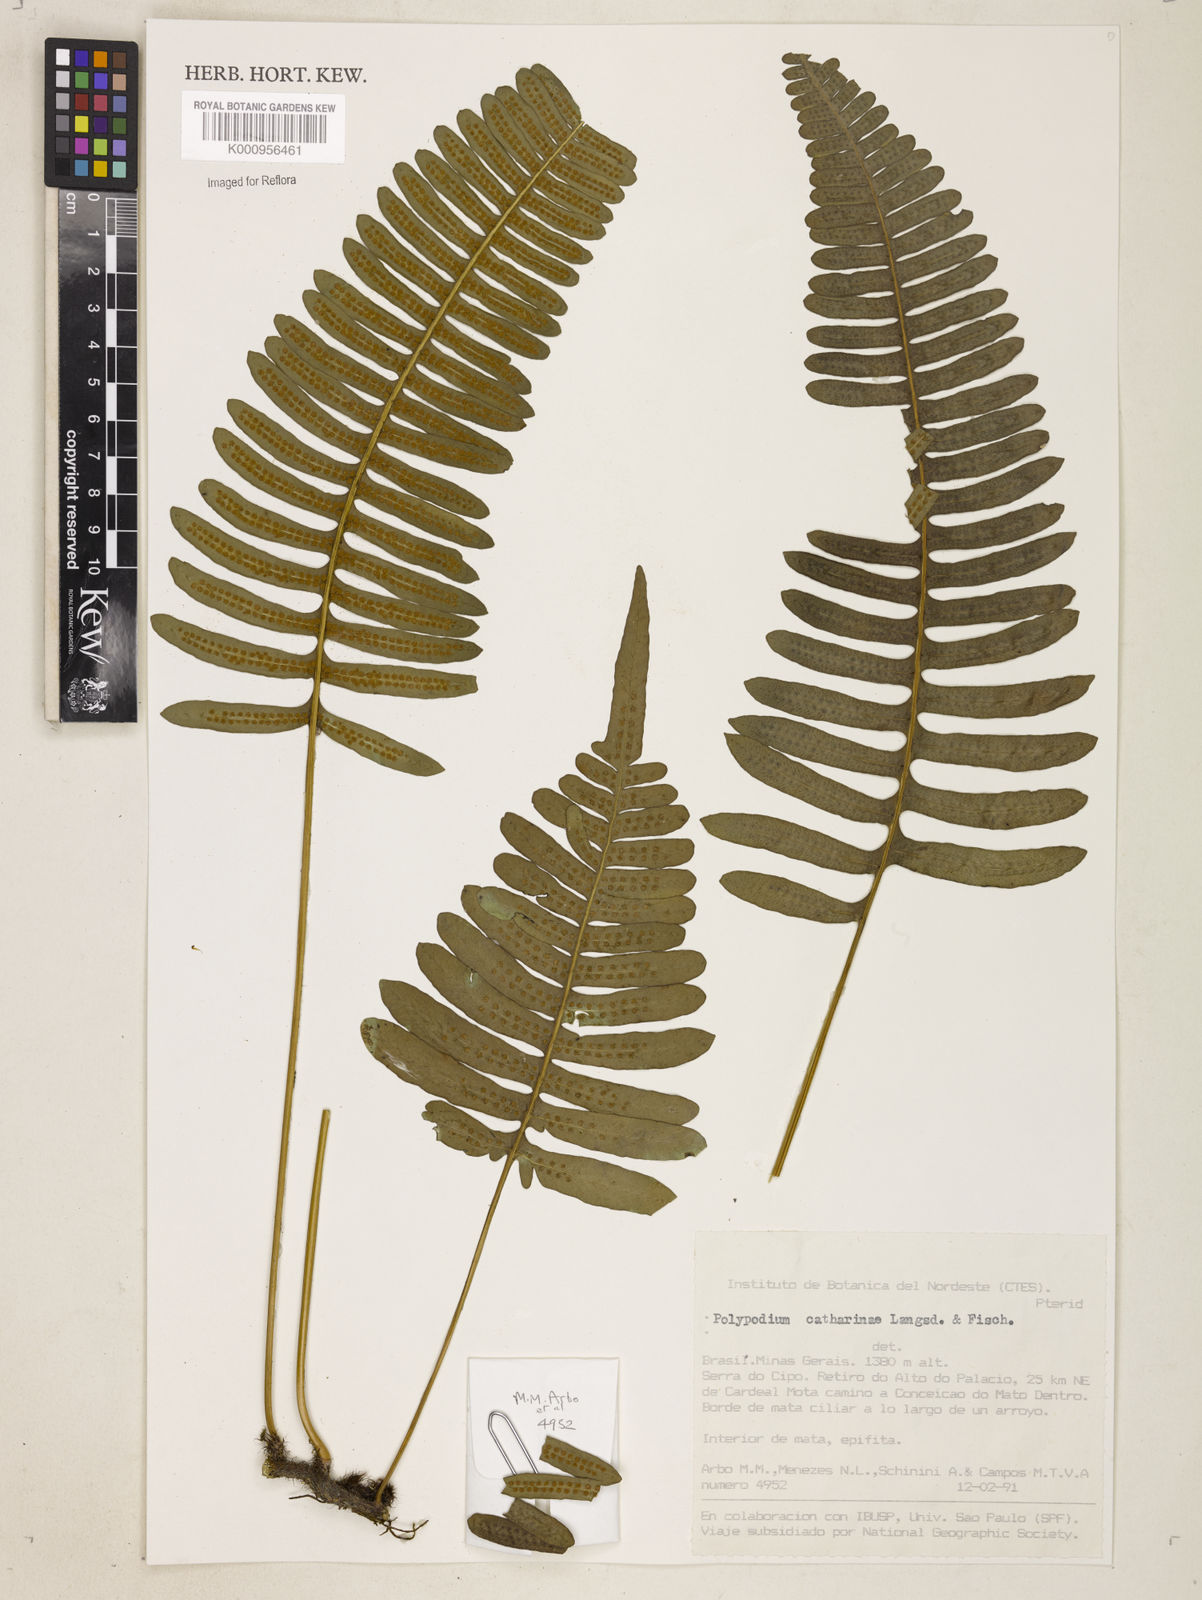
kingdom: Plantae
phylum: Tracheophyta
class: Polypodiopsida
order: Polypodiales
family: Polypodiaceae
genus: Polypodium
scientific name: Polypodium
